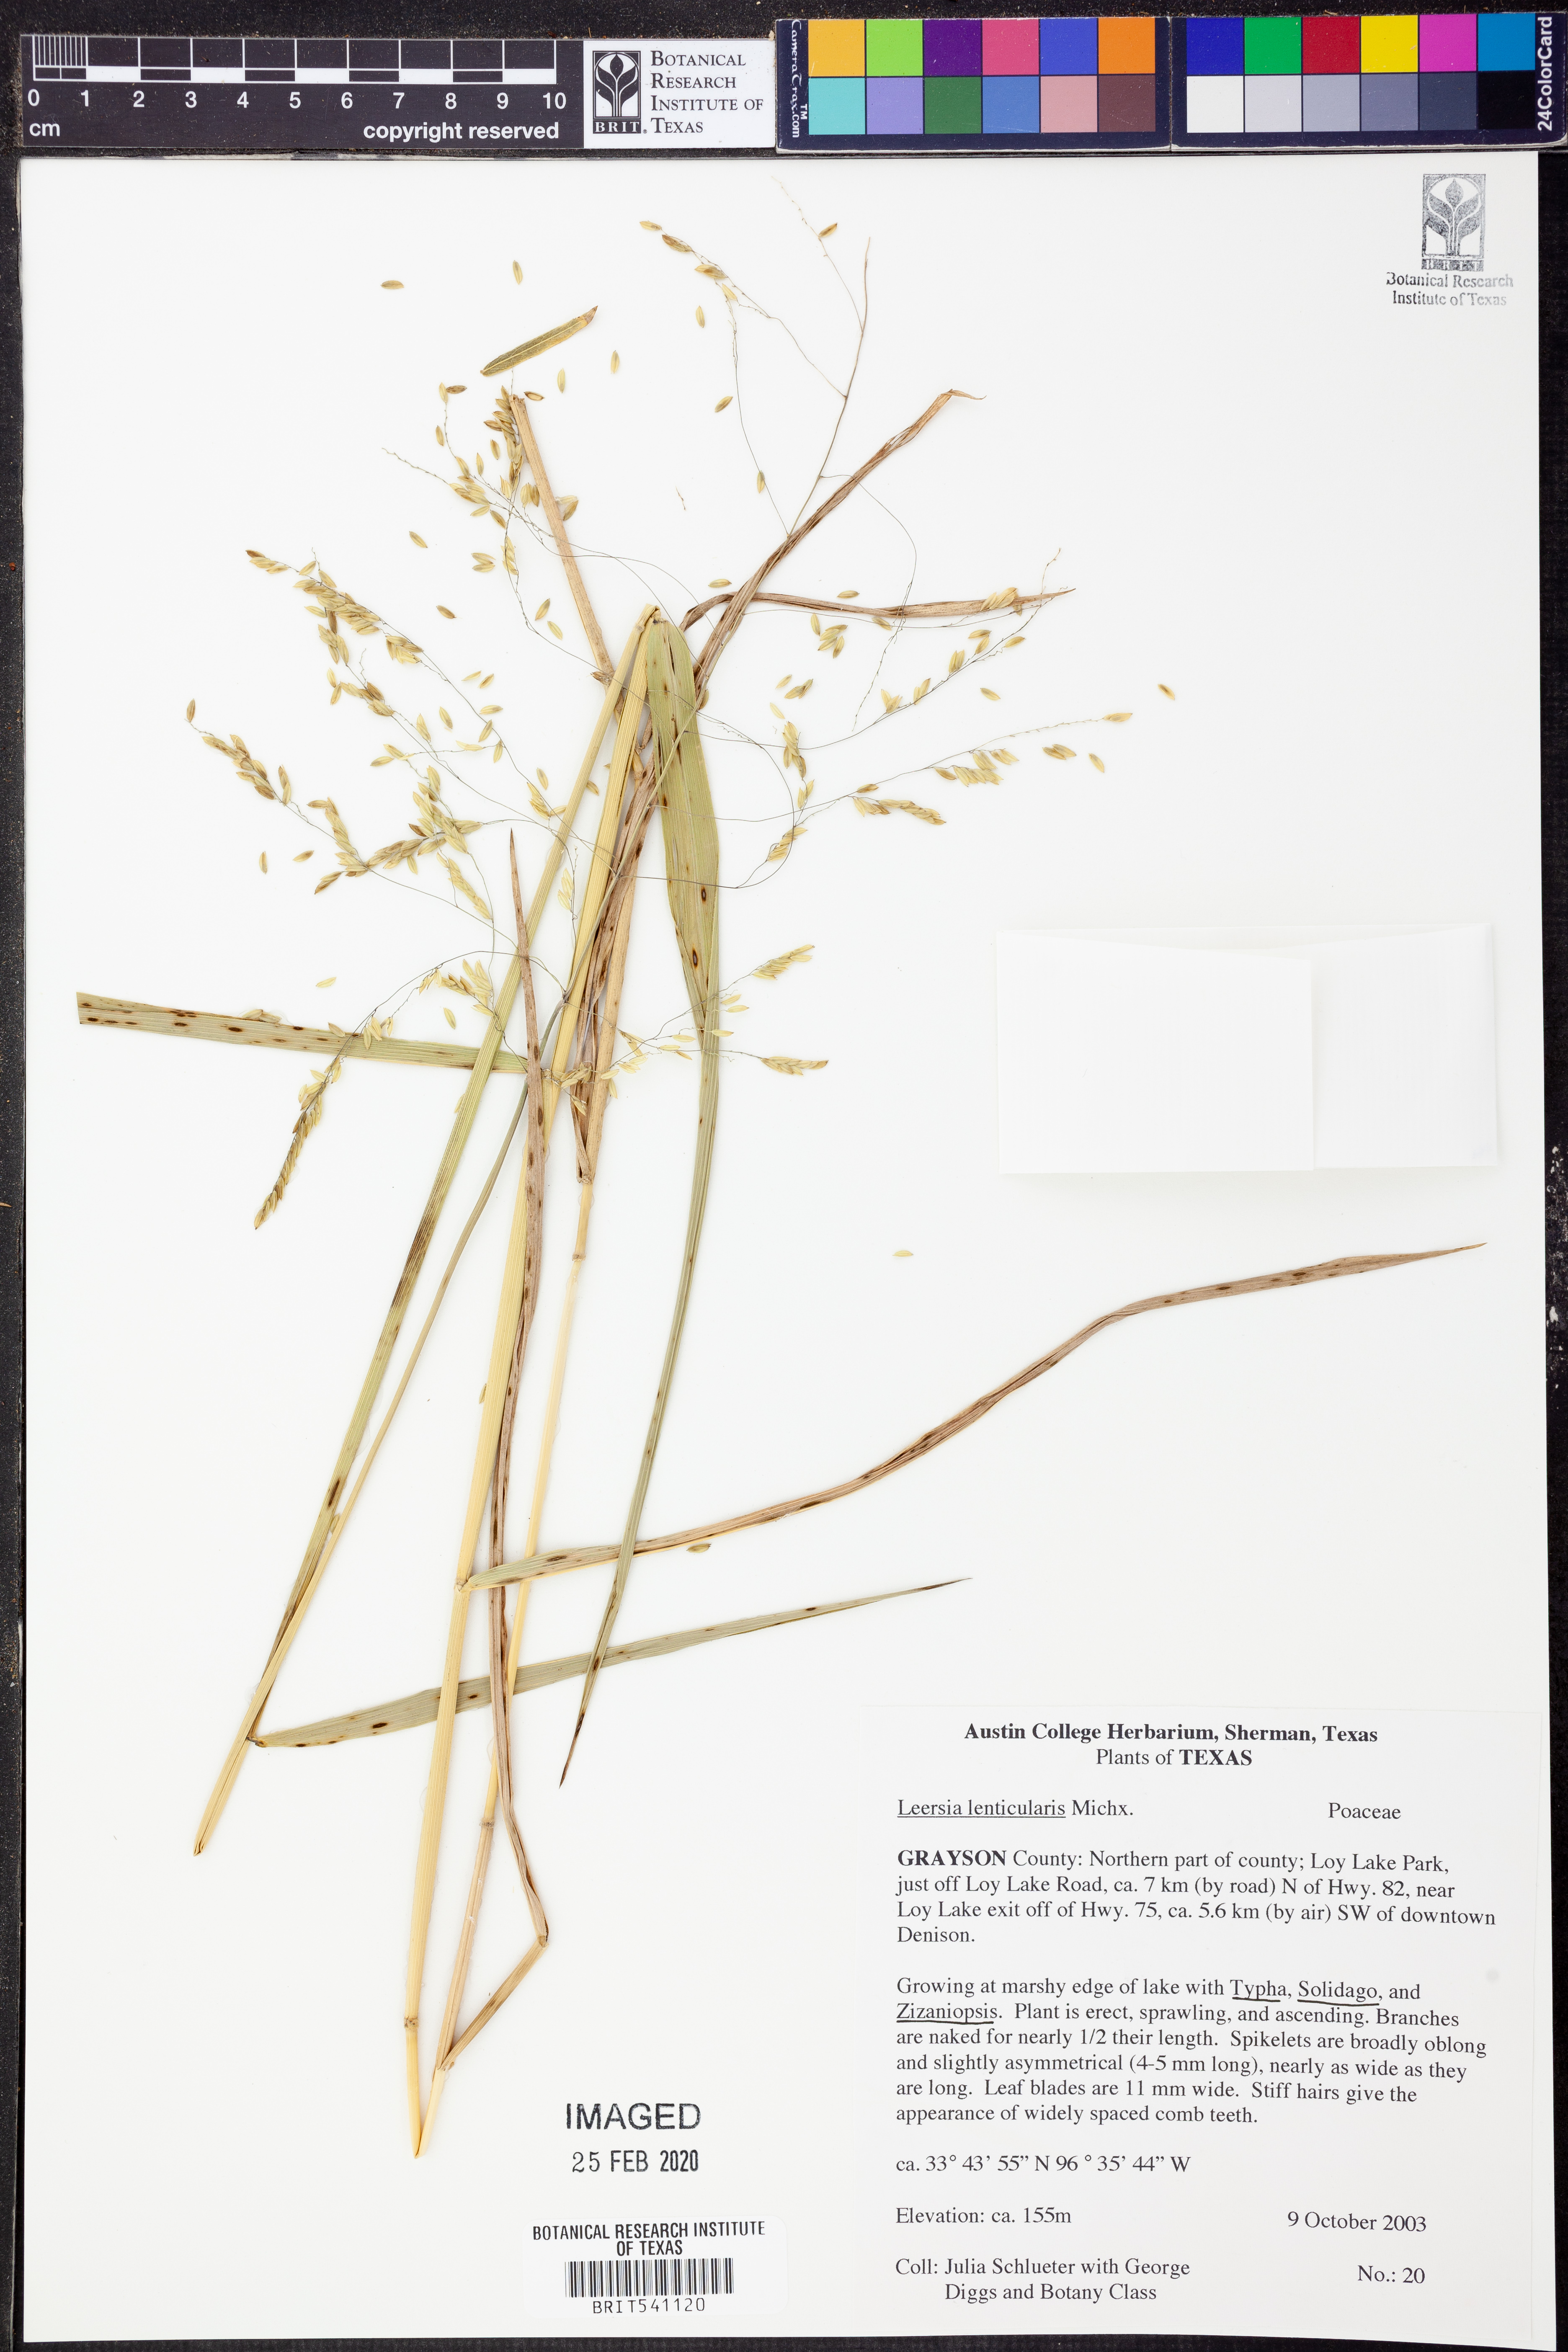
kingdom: Plantae
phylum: Tracheophyta
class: Liliopsida
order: Poales
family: Poaceae
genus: Leersia
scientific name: Leersia lenticularis
